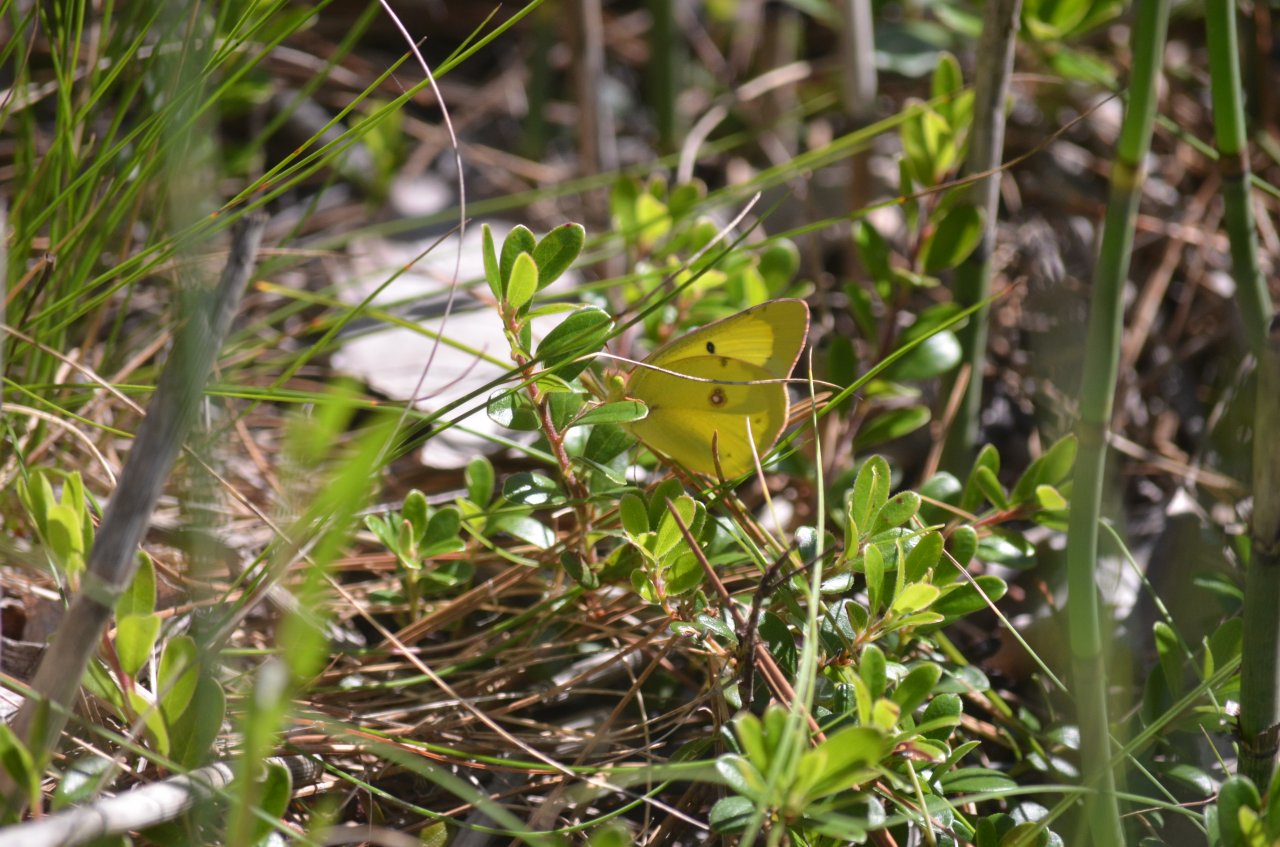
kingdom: Animalia
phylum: Arthropoda
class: Insecta
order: Lepidoptera
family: Pieridae
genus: Colias
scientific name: Colias philodice
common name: Clouded Sulphur
